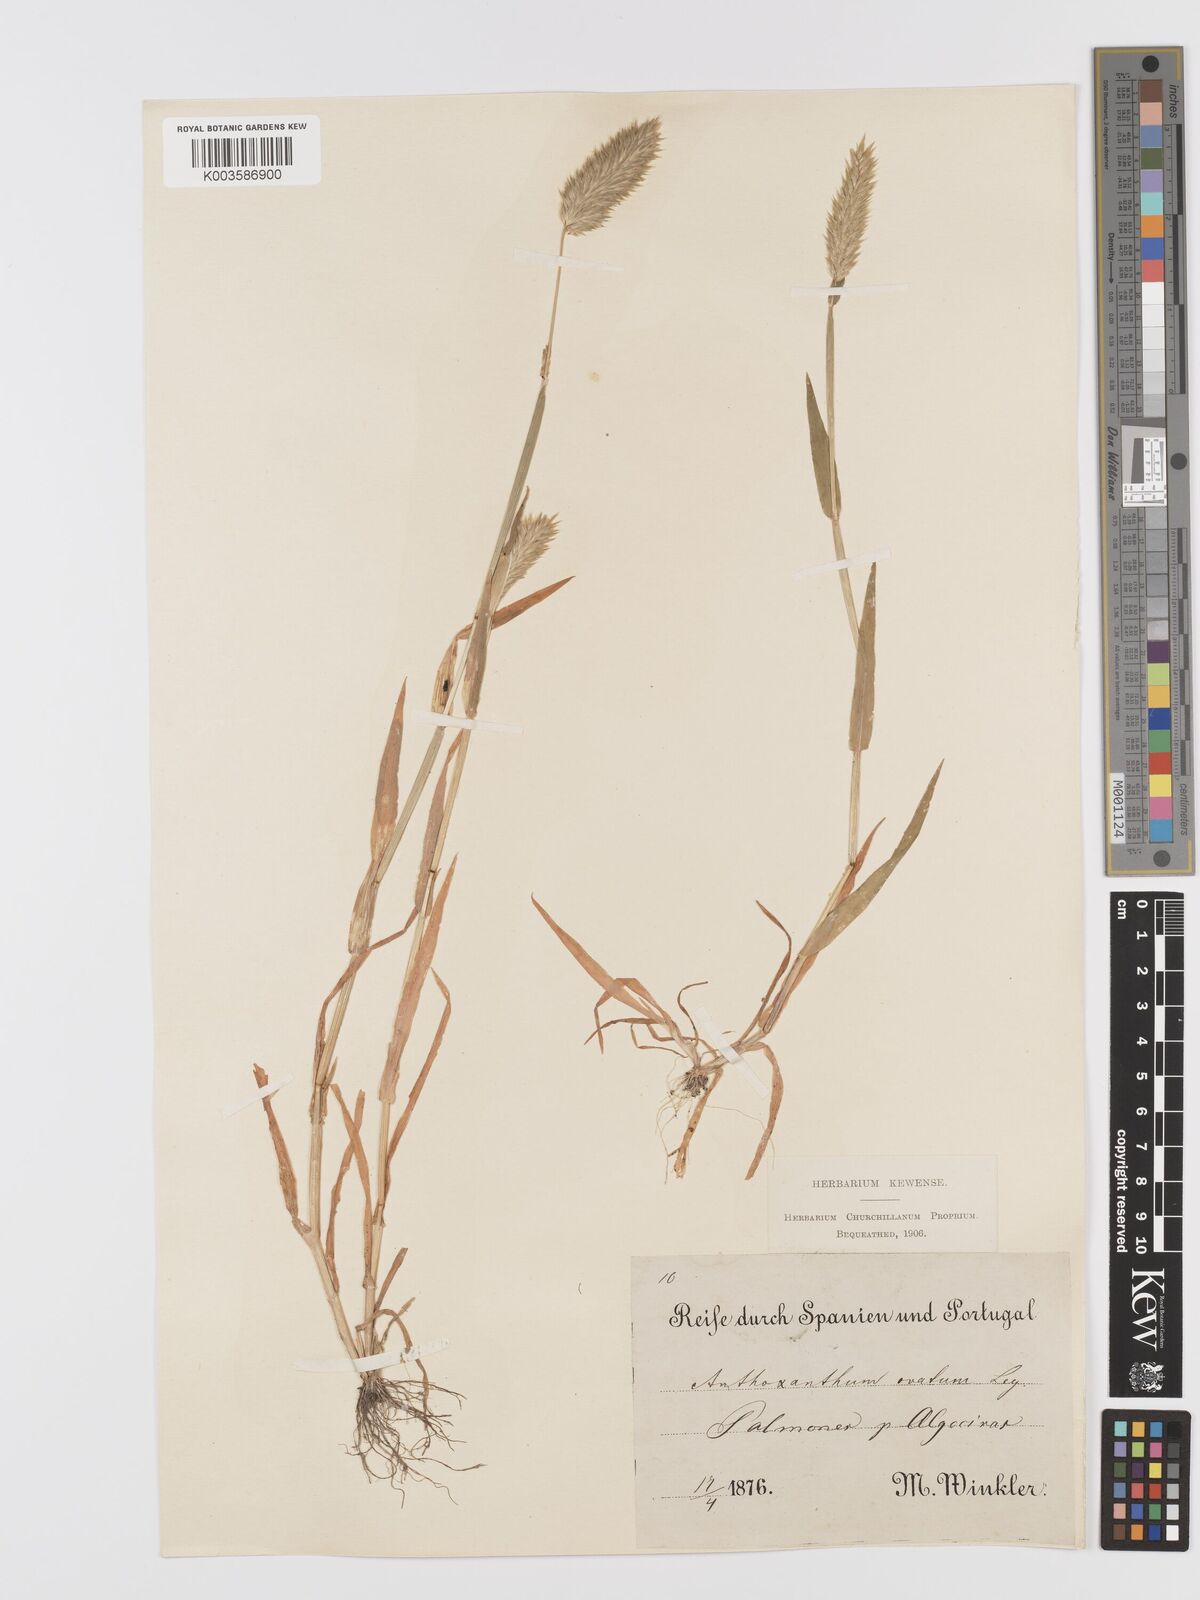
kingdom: Plantae
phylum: Tracheophyta
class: Liliopsida
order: Poales
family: Poaceae
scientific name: Poaceae
